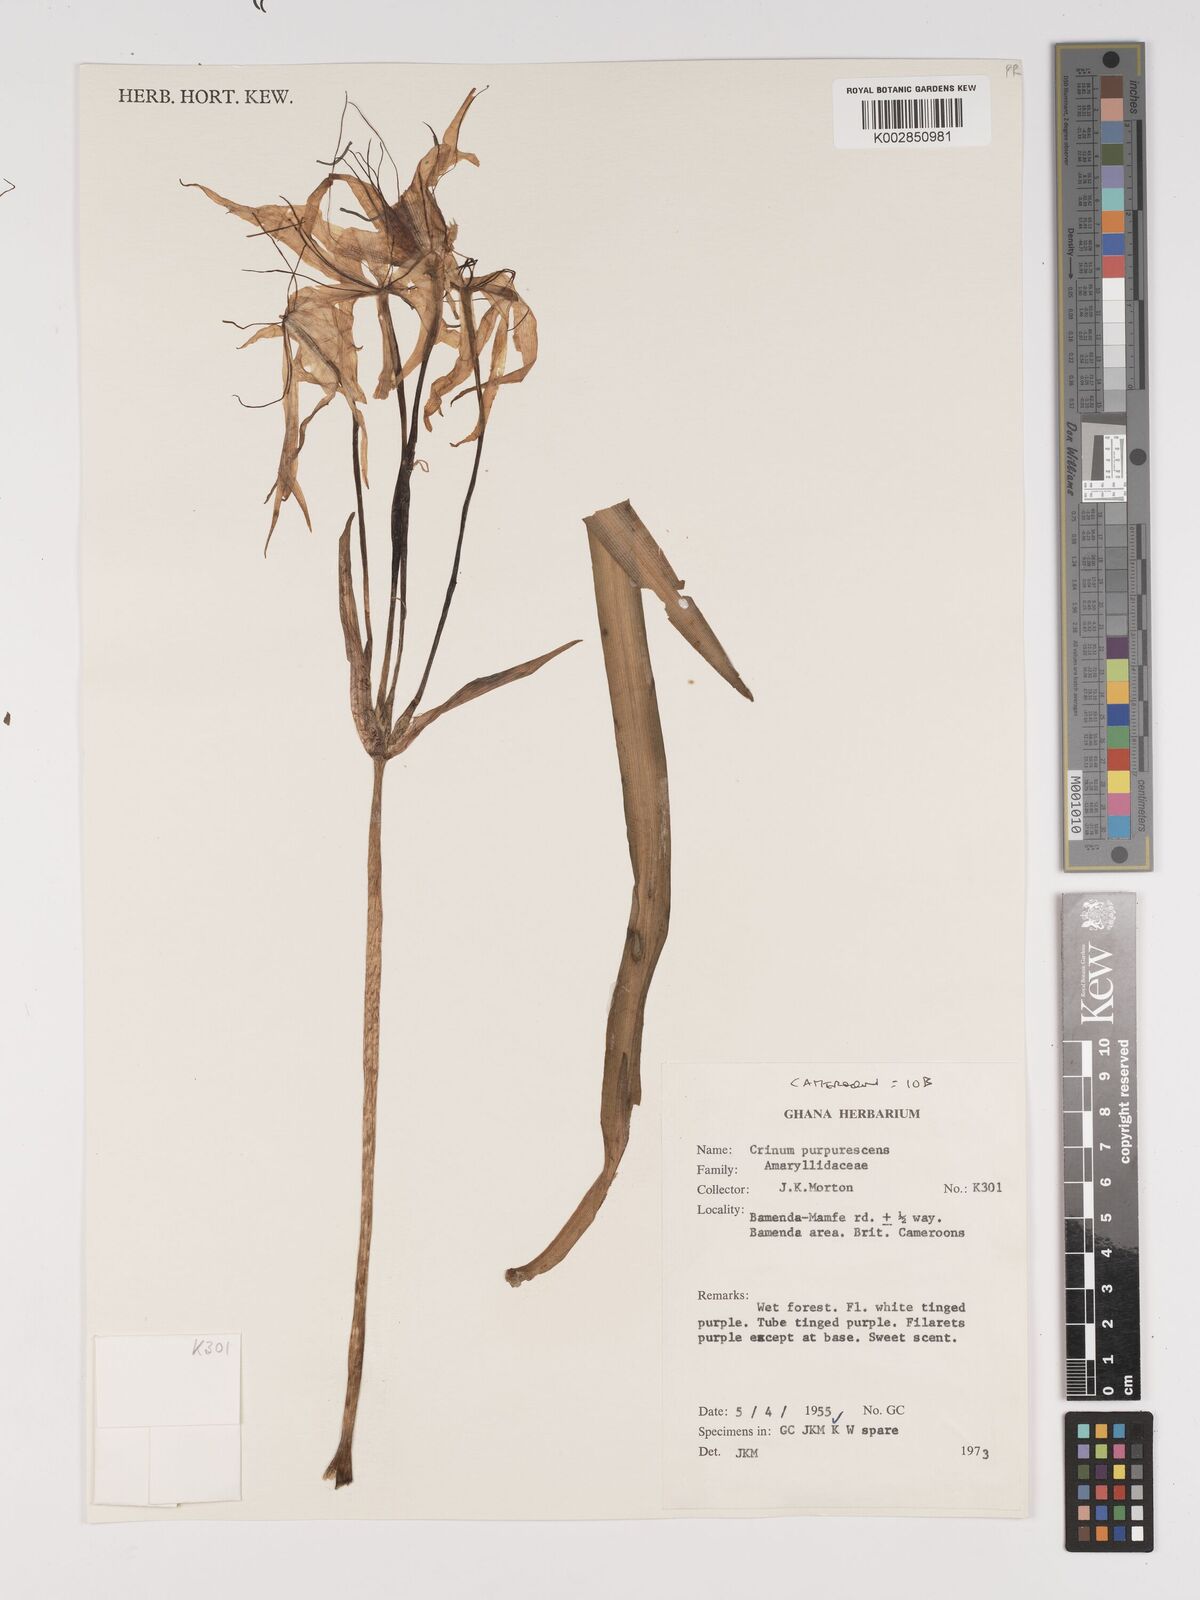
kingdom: Plantae
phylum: Tracheophyta
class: Liliopsida
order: Asparagales
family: Amaryllidaceae
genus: Crinum
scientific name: Crinum purpurascens
